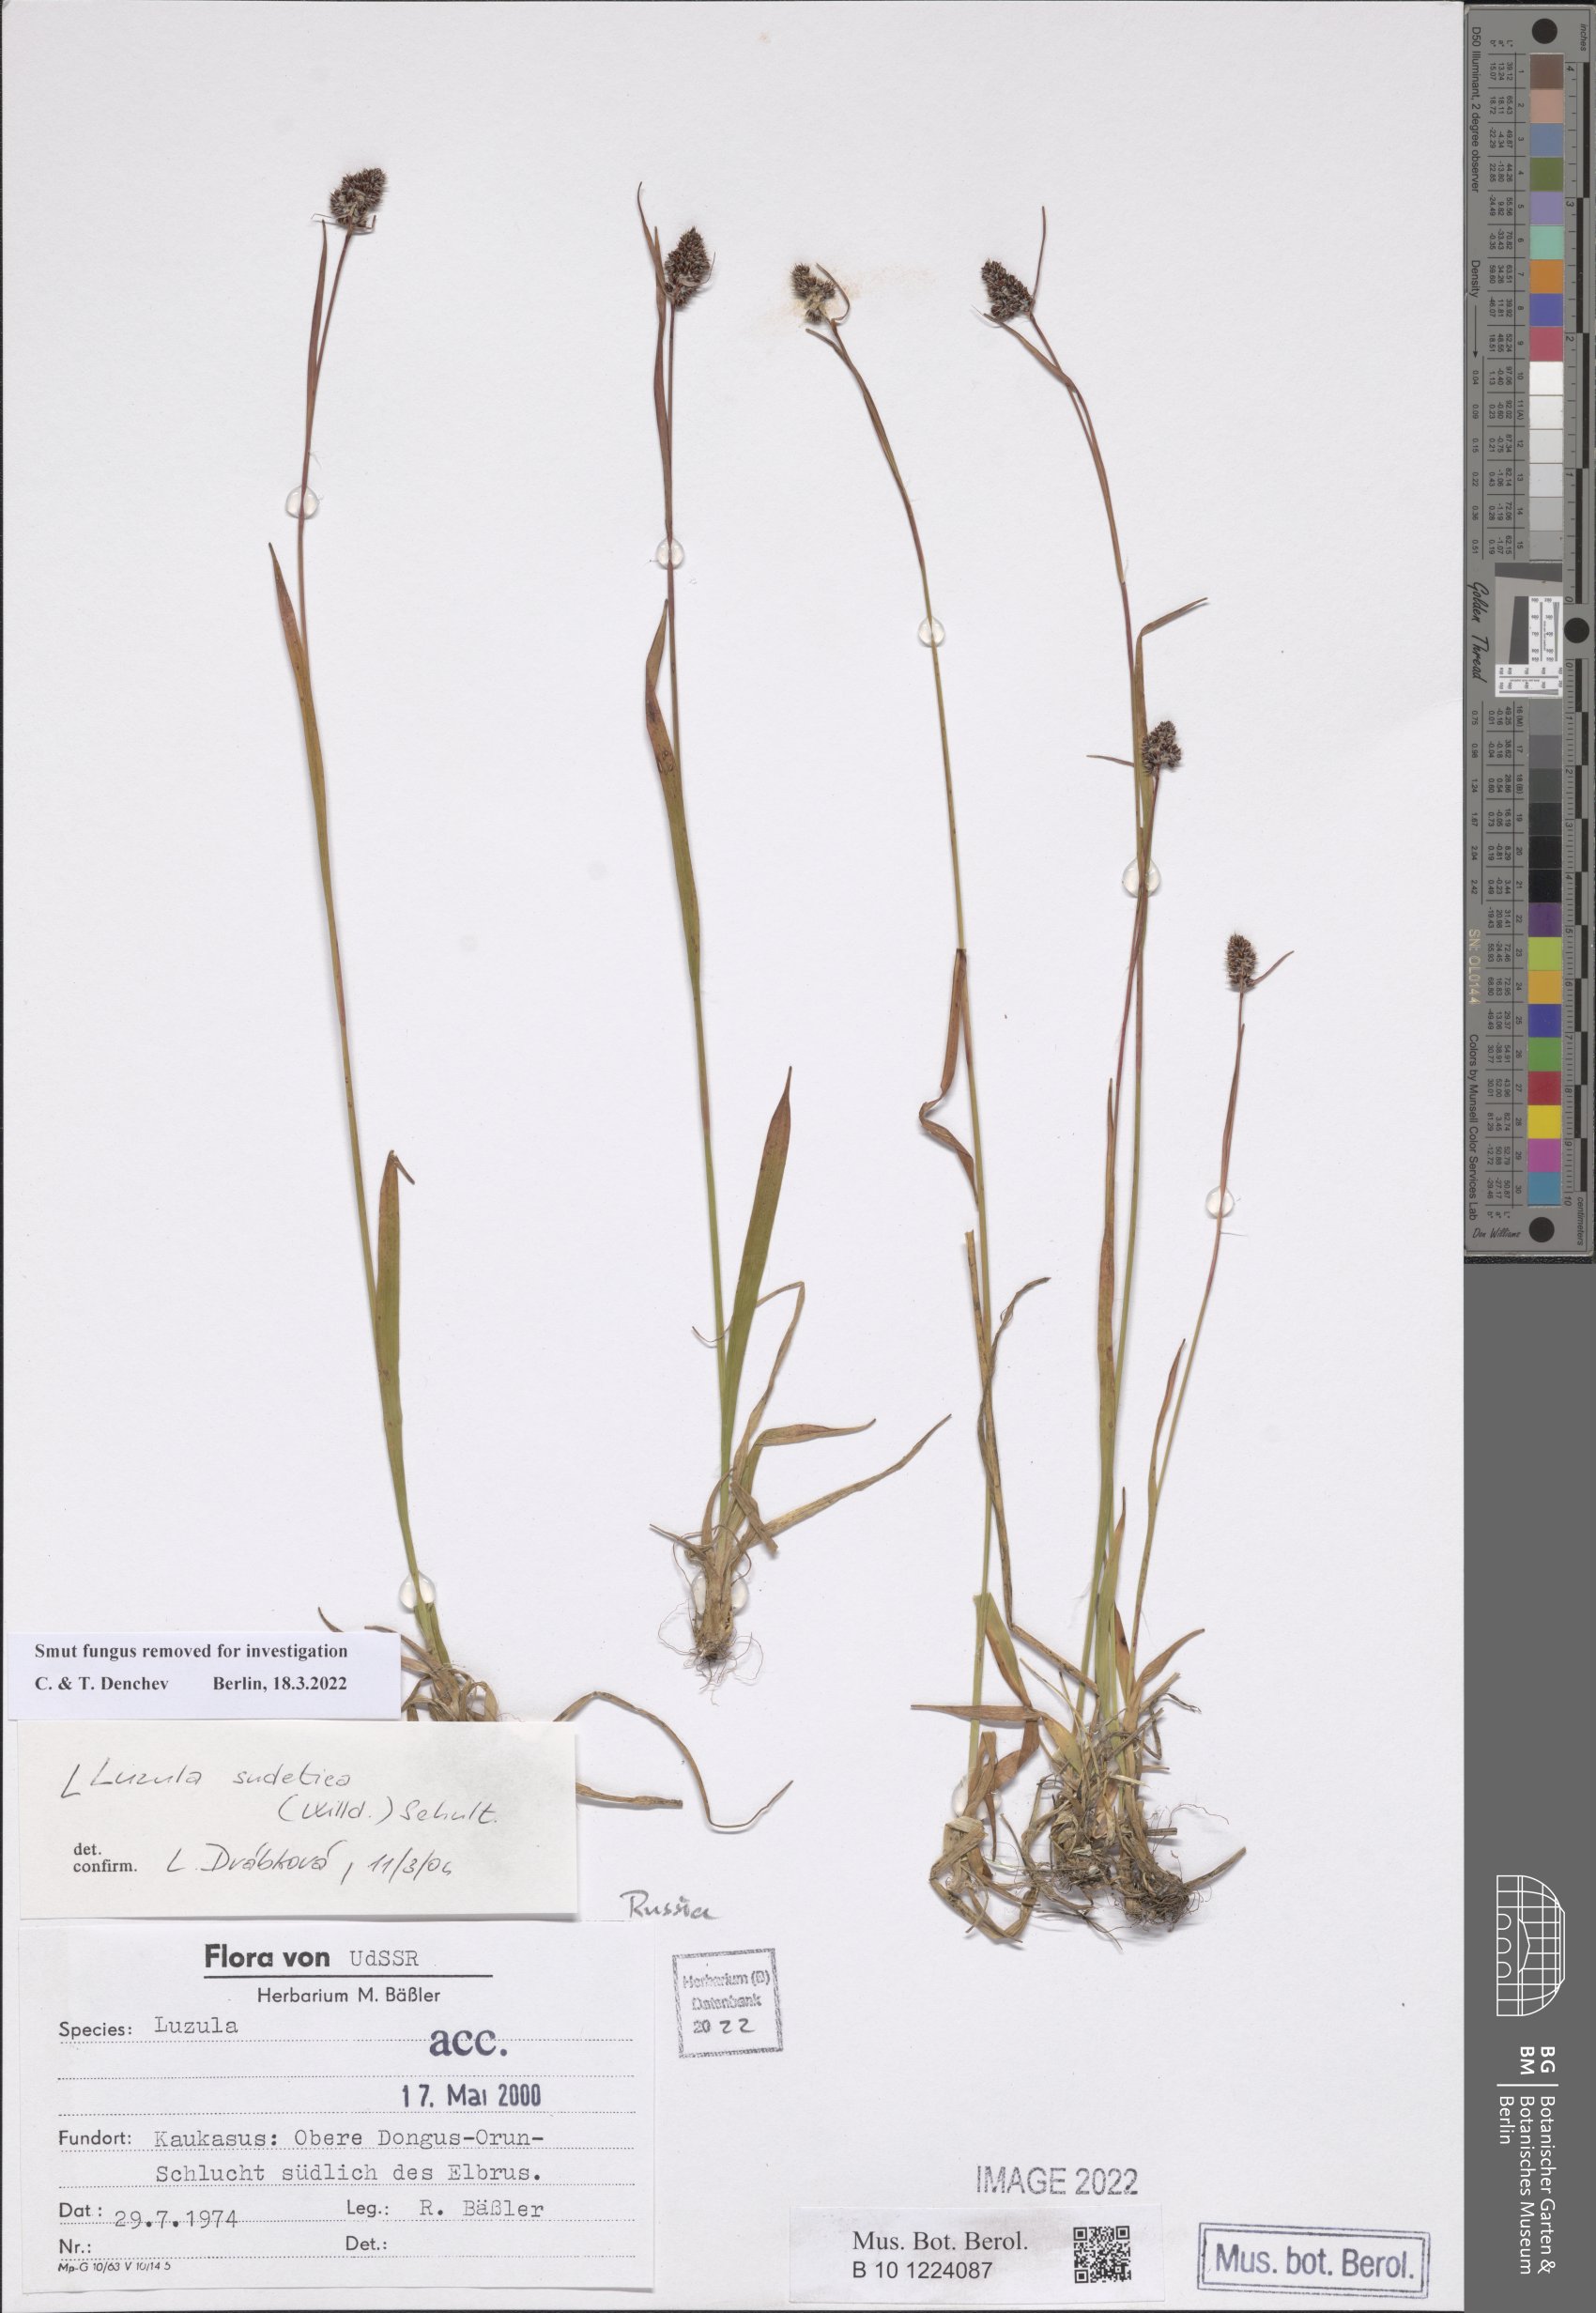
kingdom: Plantae
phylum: Tracheophyta
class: Liliopsida
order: Poales
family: Juncaceae
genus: Luzula
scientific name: Luzula sudetica
